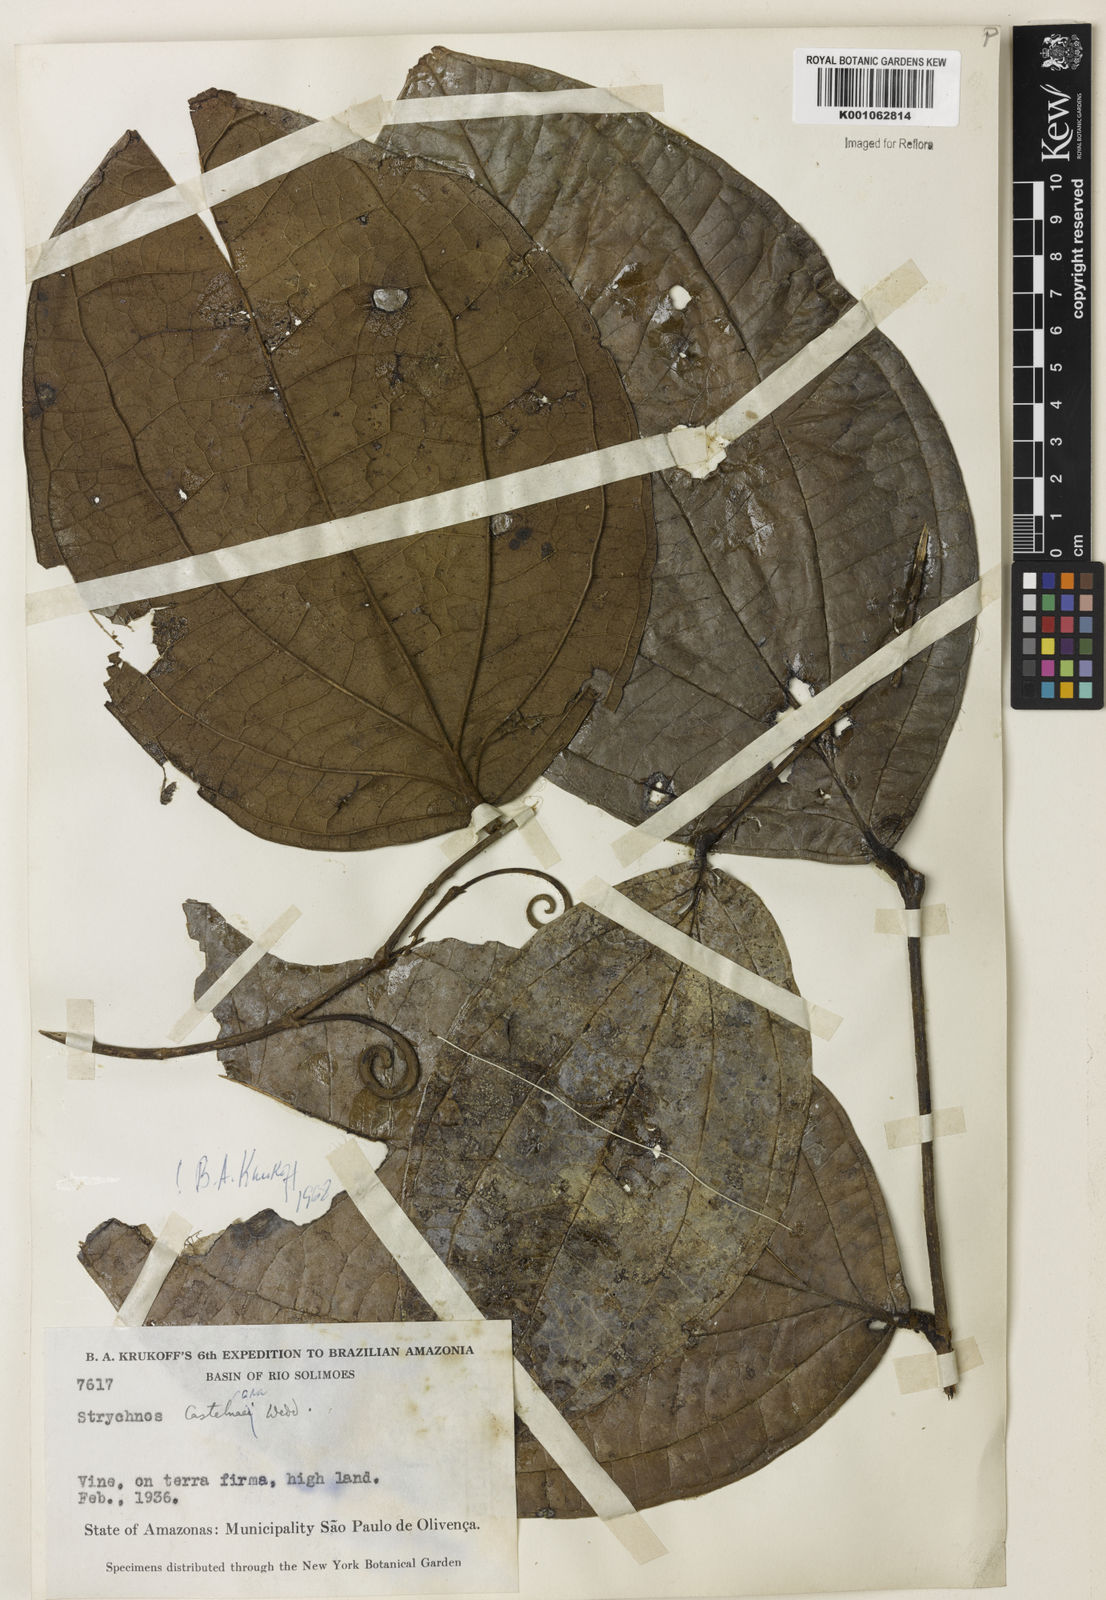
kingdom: Plantae
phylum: Tracheophyta
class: Magnoliopsida
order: Gentianales
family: Loganiaceae
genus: Strychnos
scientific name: Strychnos
